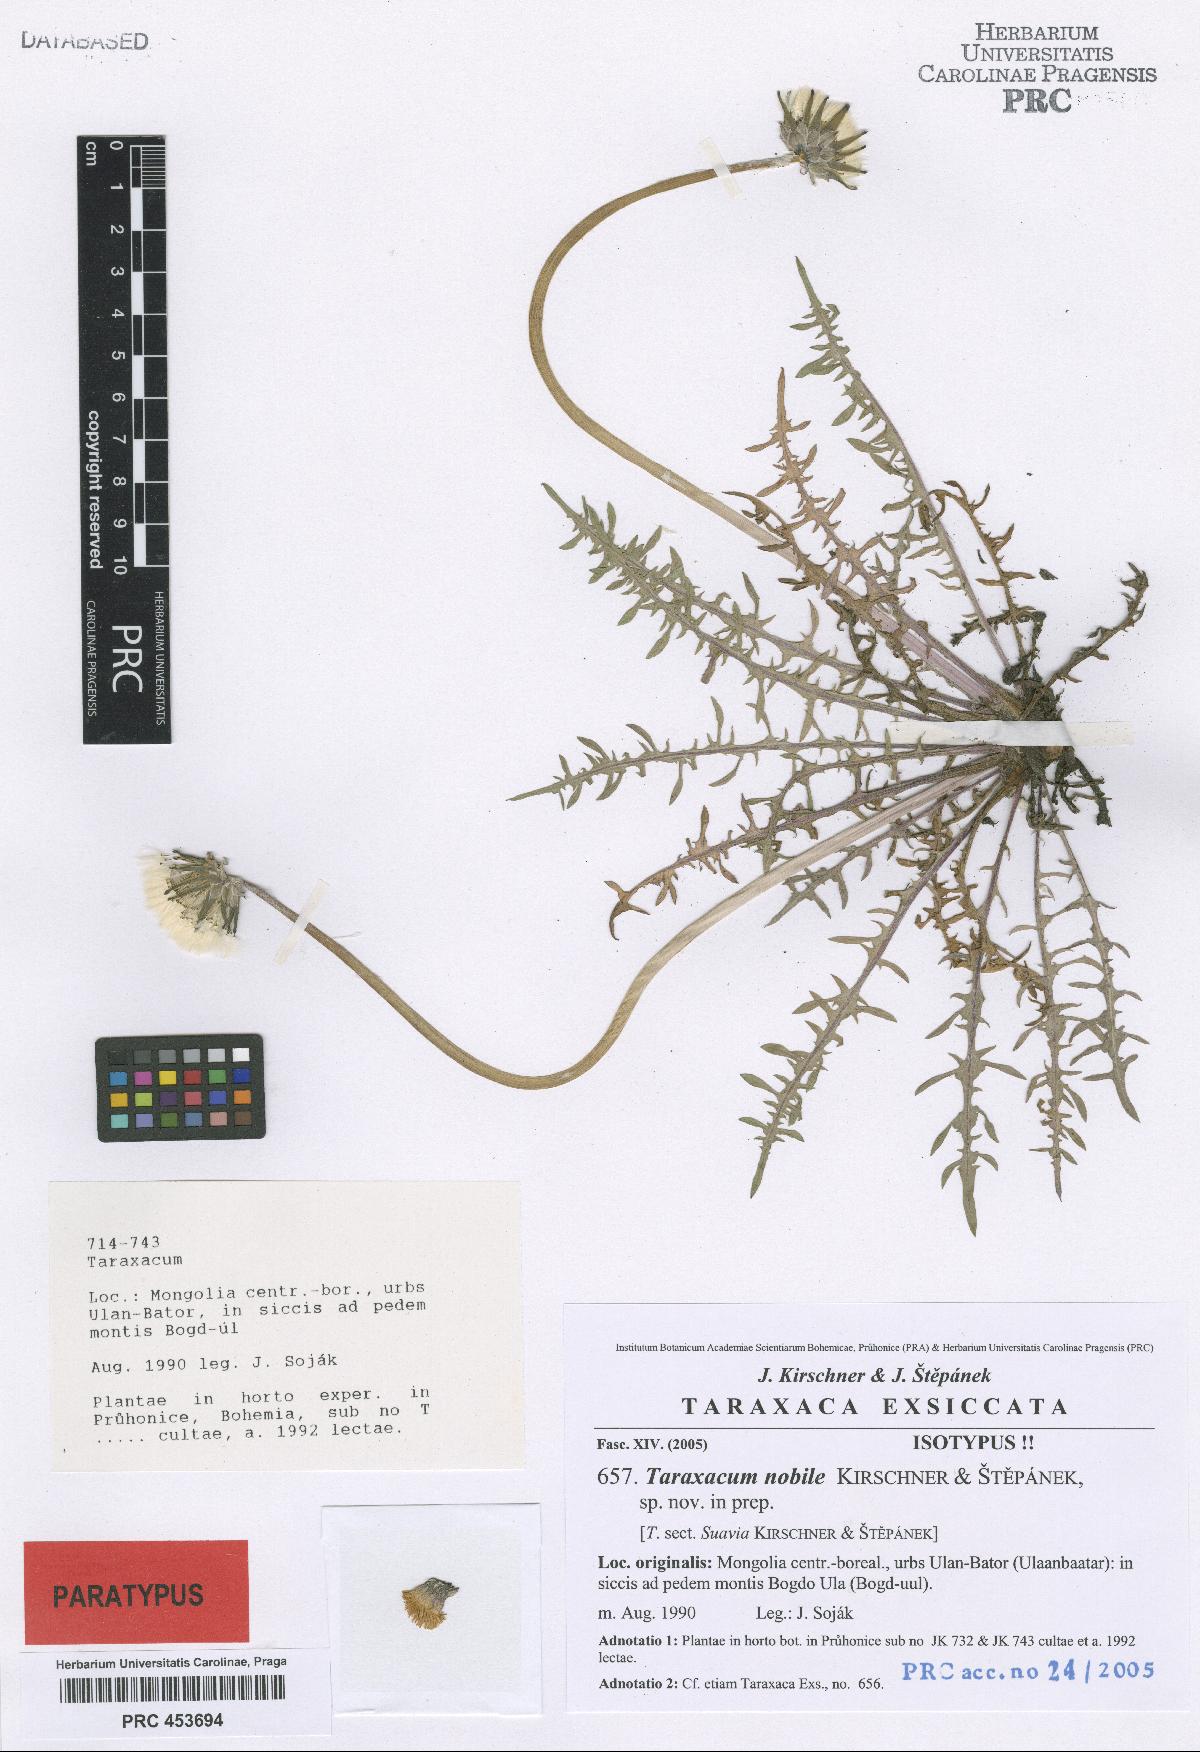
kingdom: Plantae
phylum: Tracheophyta
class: Magnoliopsida
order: Asterales
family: Asteraceae
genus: Taraxacum
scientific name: Taraxacum nobile
